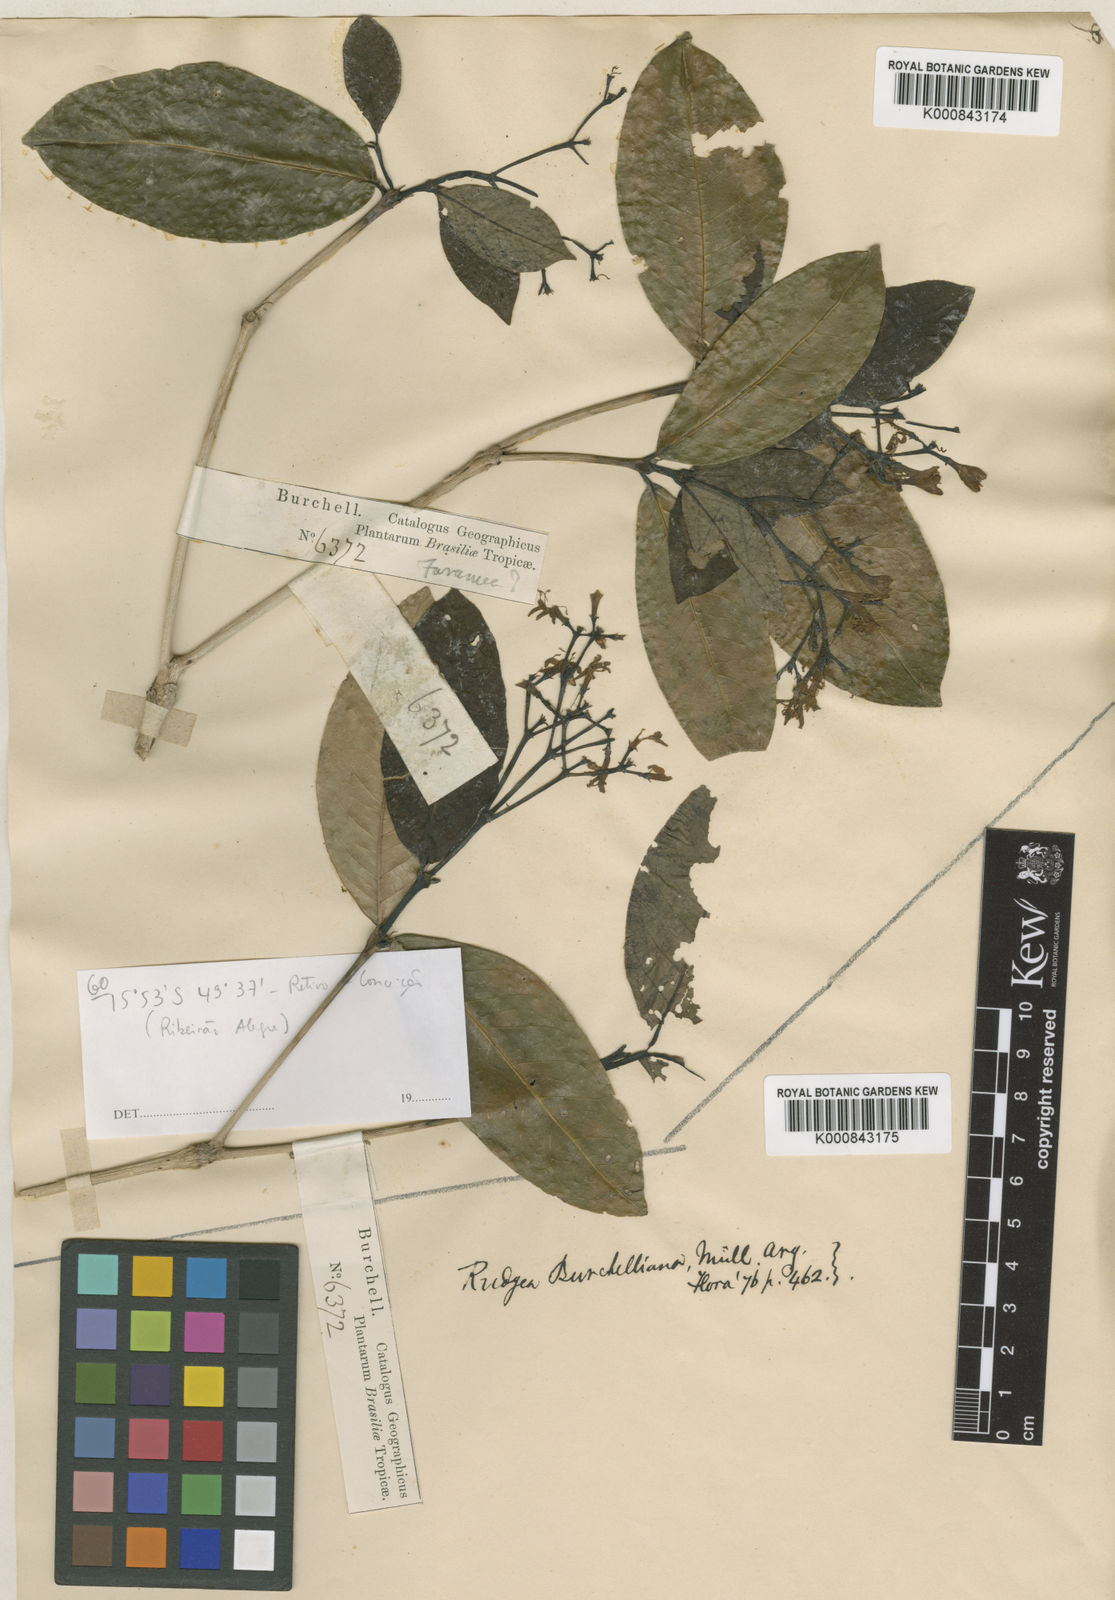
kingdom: Plantae
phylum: Tracheophyta
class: Magnoliopsida
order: Gentianales
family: Rubiaceae
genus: Rudgea
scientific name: Rudgea
